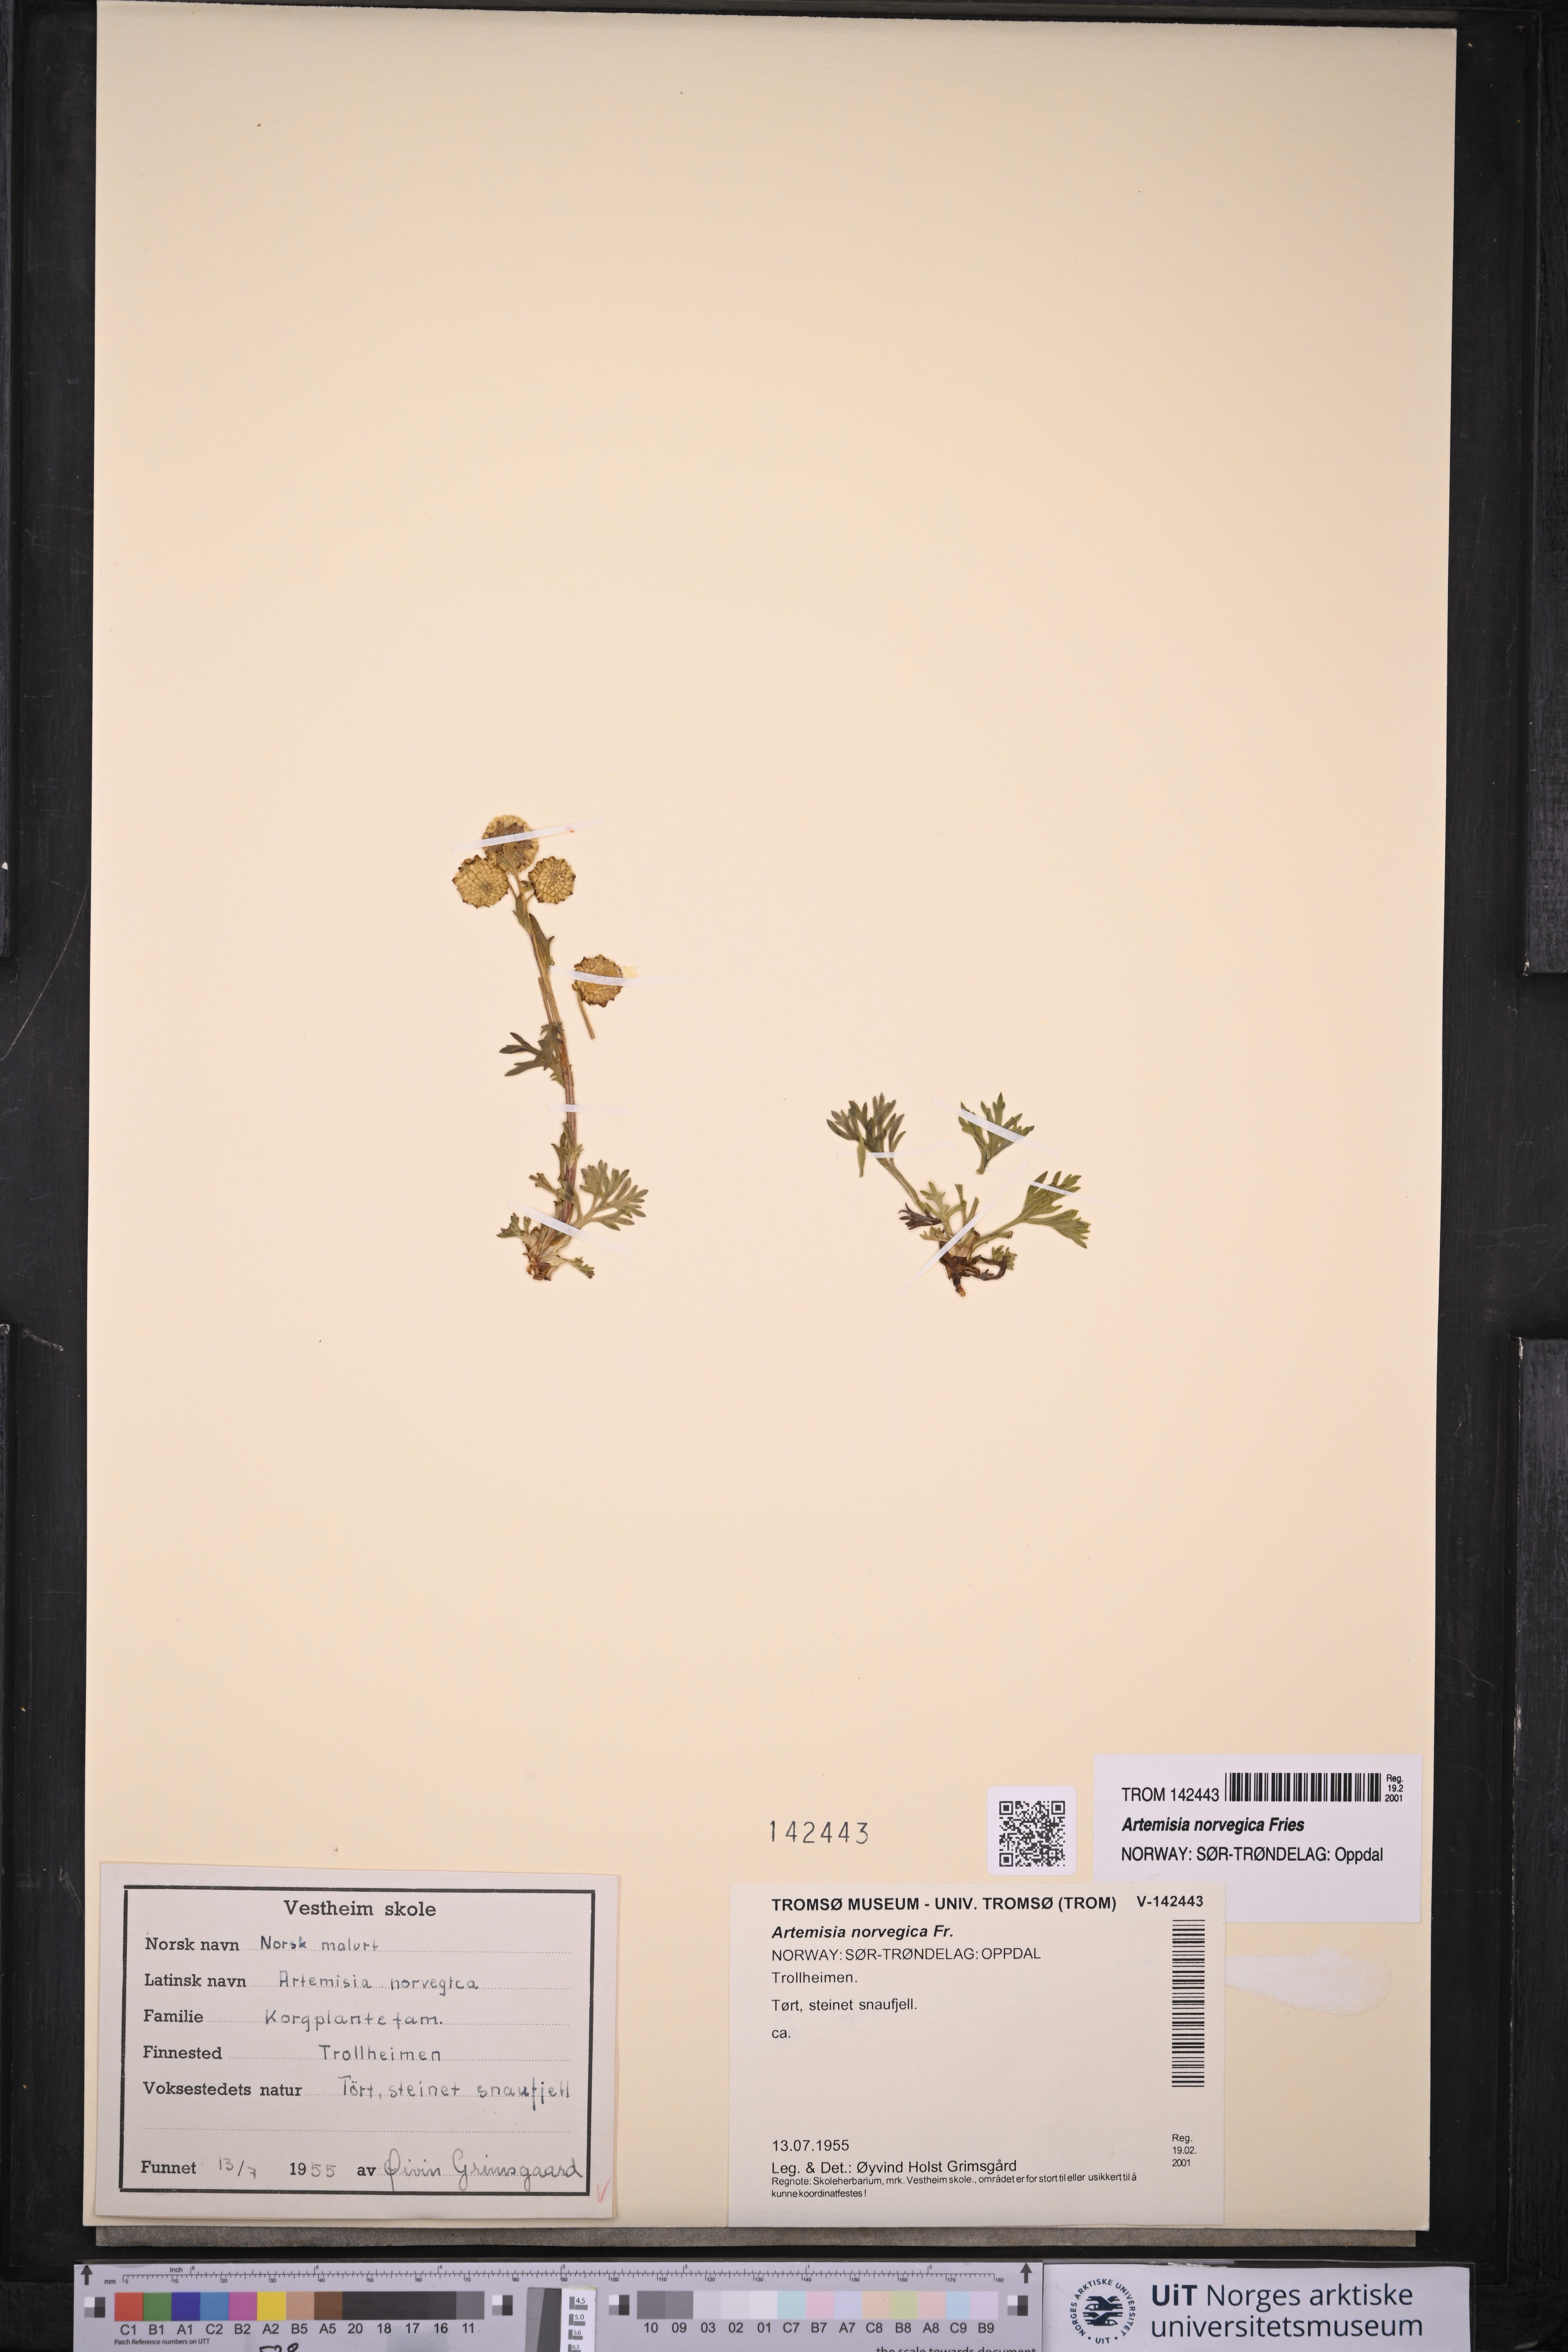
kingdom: Plantae
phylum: Tracheophyta
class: Magnoliopsida
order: Asterales
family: Asteraceae
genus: Artemisia
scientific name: Artemisia norvegica
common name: Norwegian mugwort
